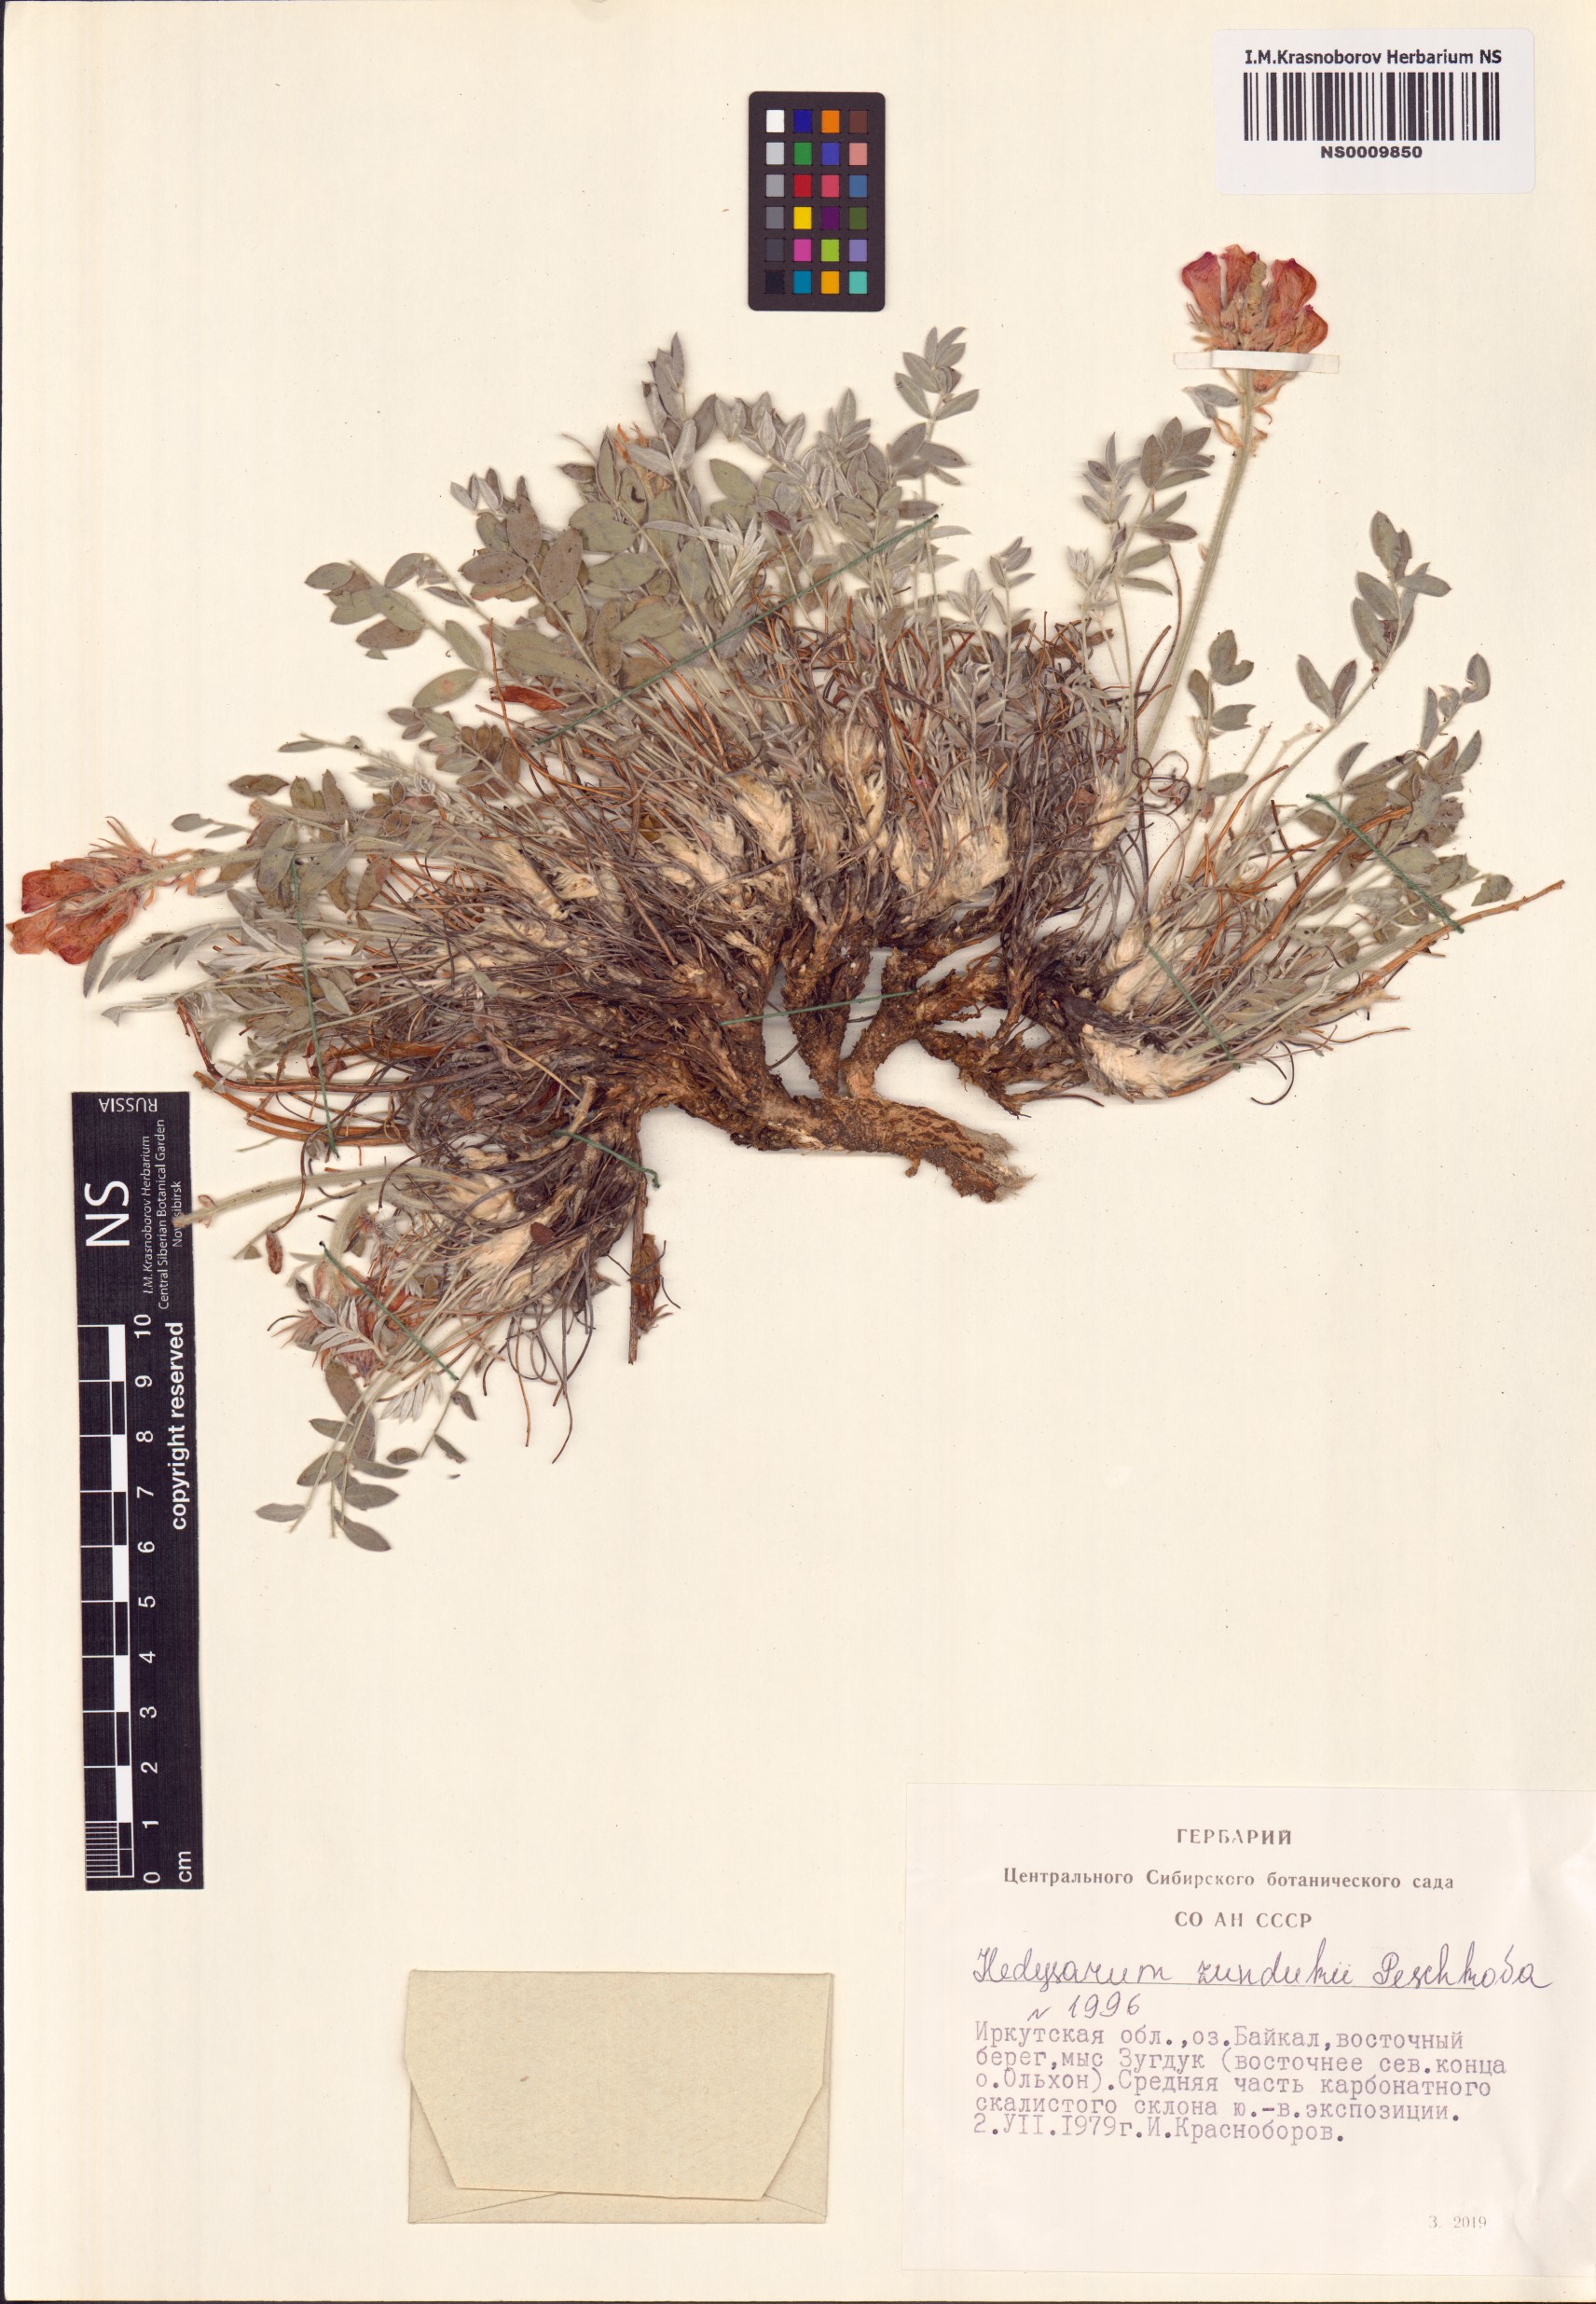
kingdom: Plantae
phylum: Tracheophyta
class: Magnoliopsida
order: Fabales
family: Fabaceae
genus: Hedysarum
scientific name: Hedysarum zundukii
